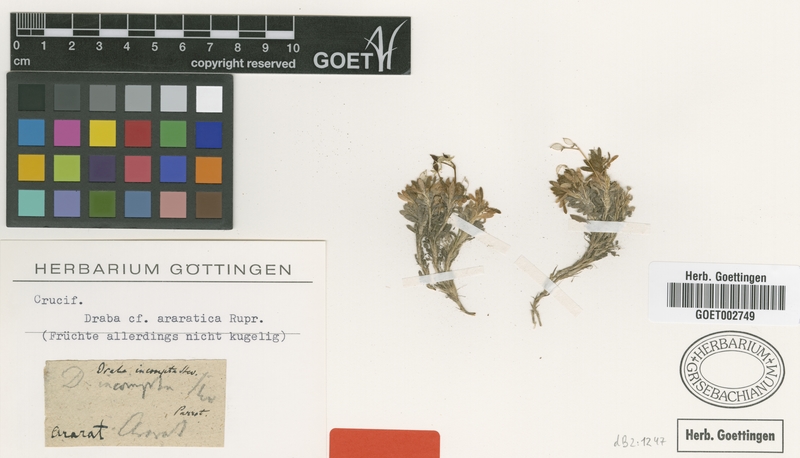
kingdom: Plantae
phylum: Tracheophyta
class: Magnoliopsida
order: Brassicales
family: Brassicaceae
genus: Draba
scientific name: Draba araratica
